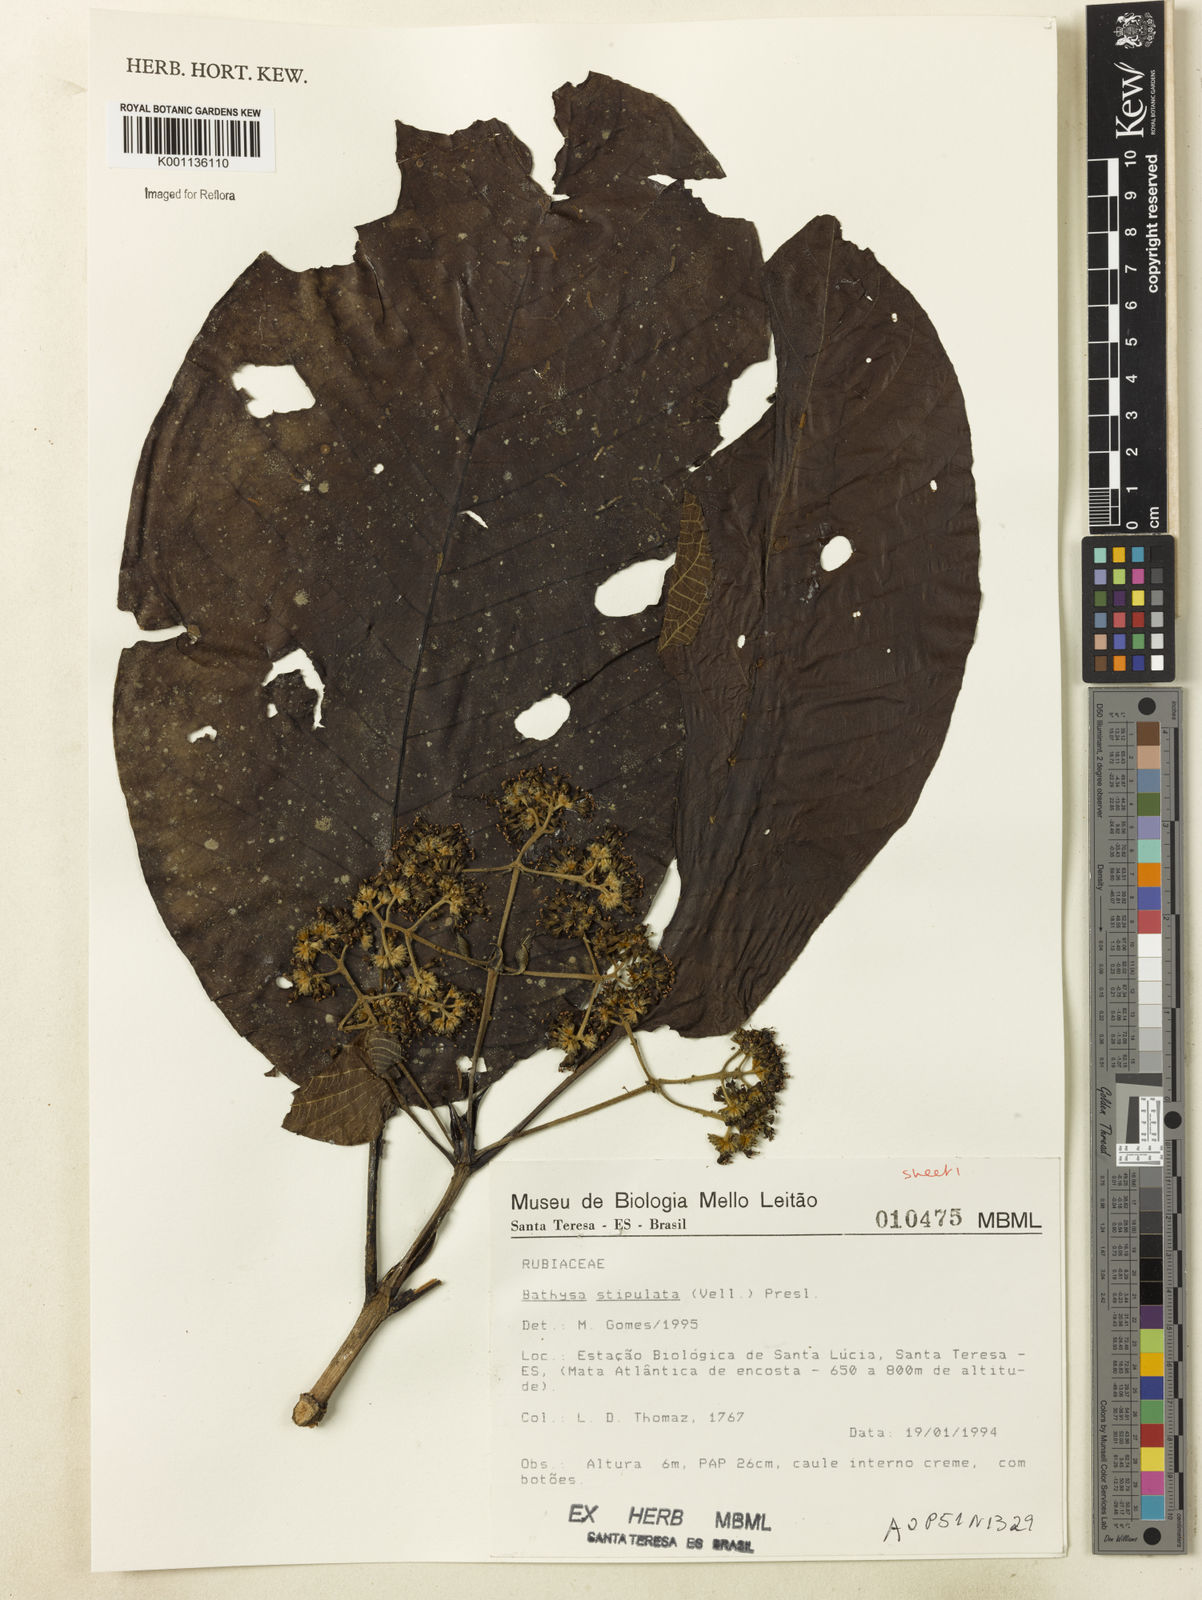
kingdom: Plantae
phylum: Tracheophyta
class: Magnoliopsida
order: Gentianales
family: Rubiaceae
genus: Bathysa
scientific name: Bathysa stipulata
